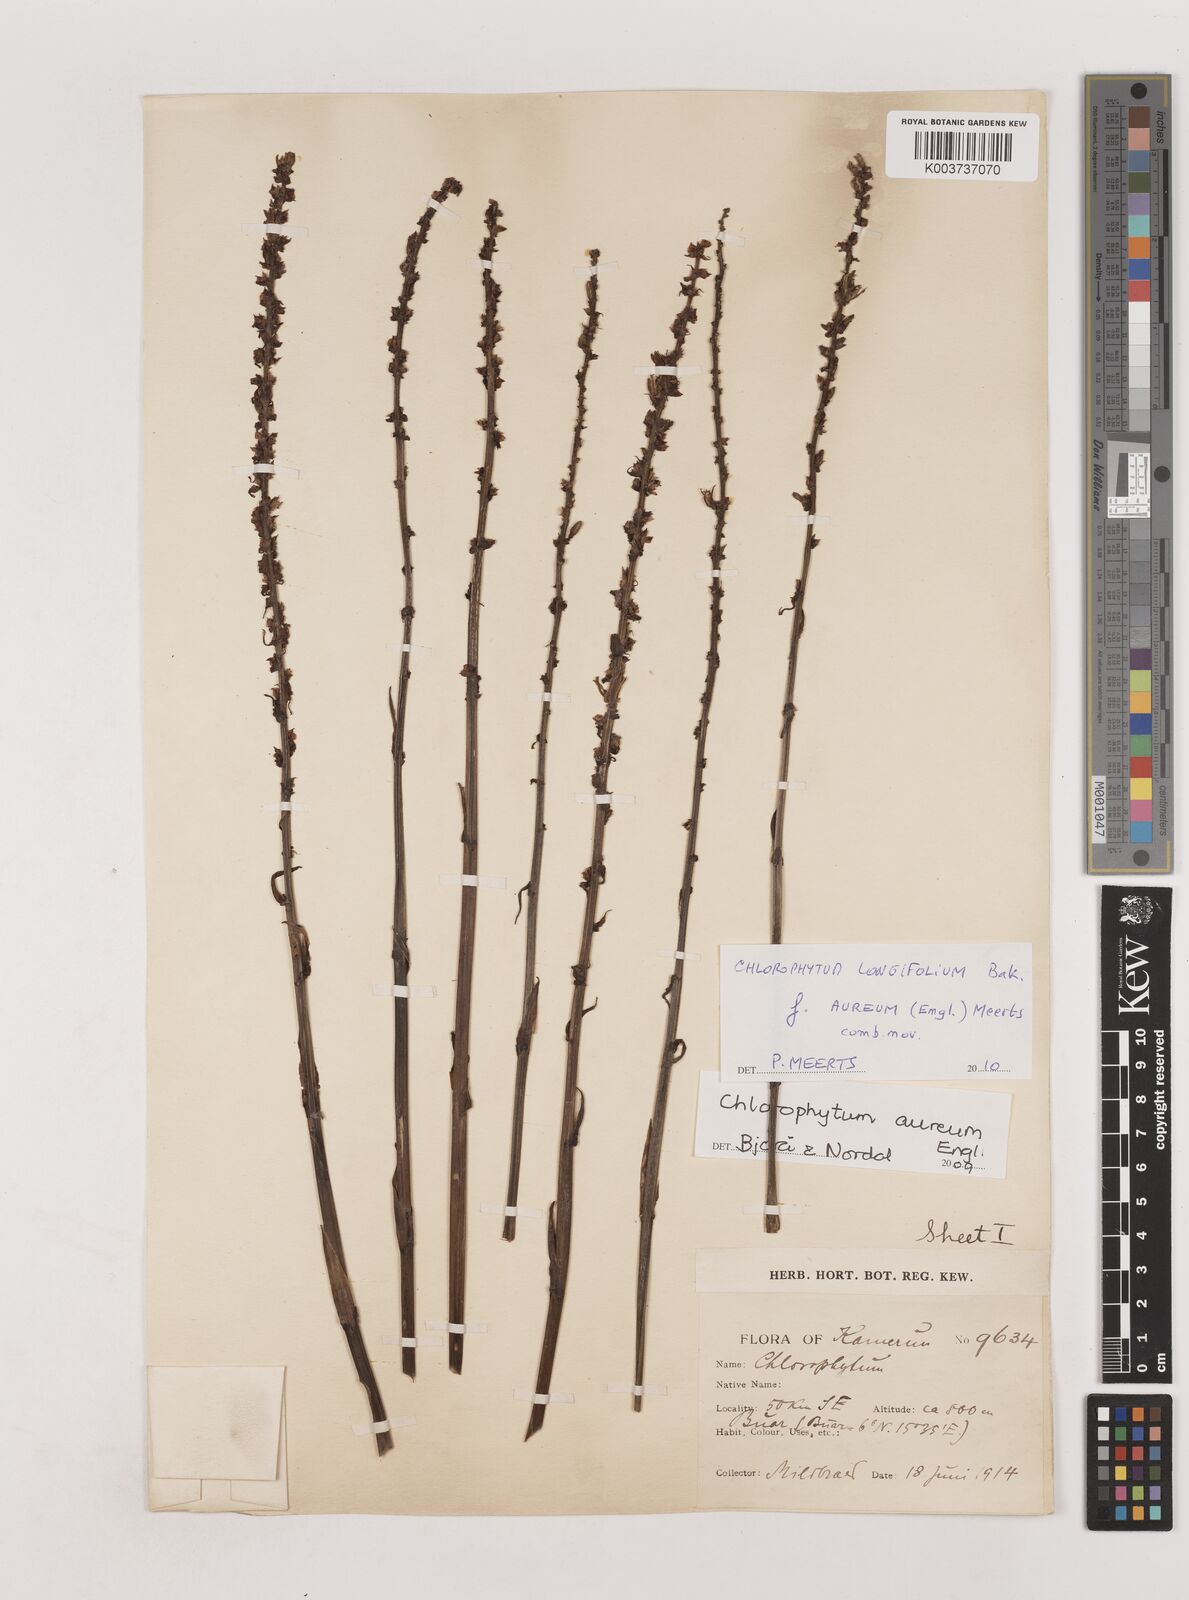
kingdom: Plantae
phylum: Tracheophyta
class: Liliopsida
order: Asparagales
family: Asparagaceae
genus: Chlorophytum
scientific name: Chlorophytum longifolium
